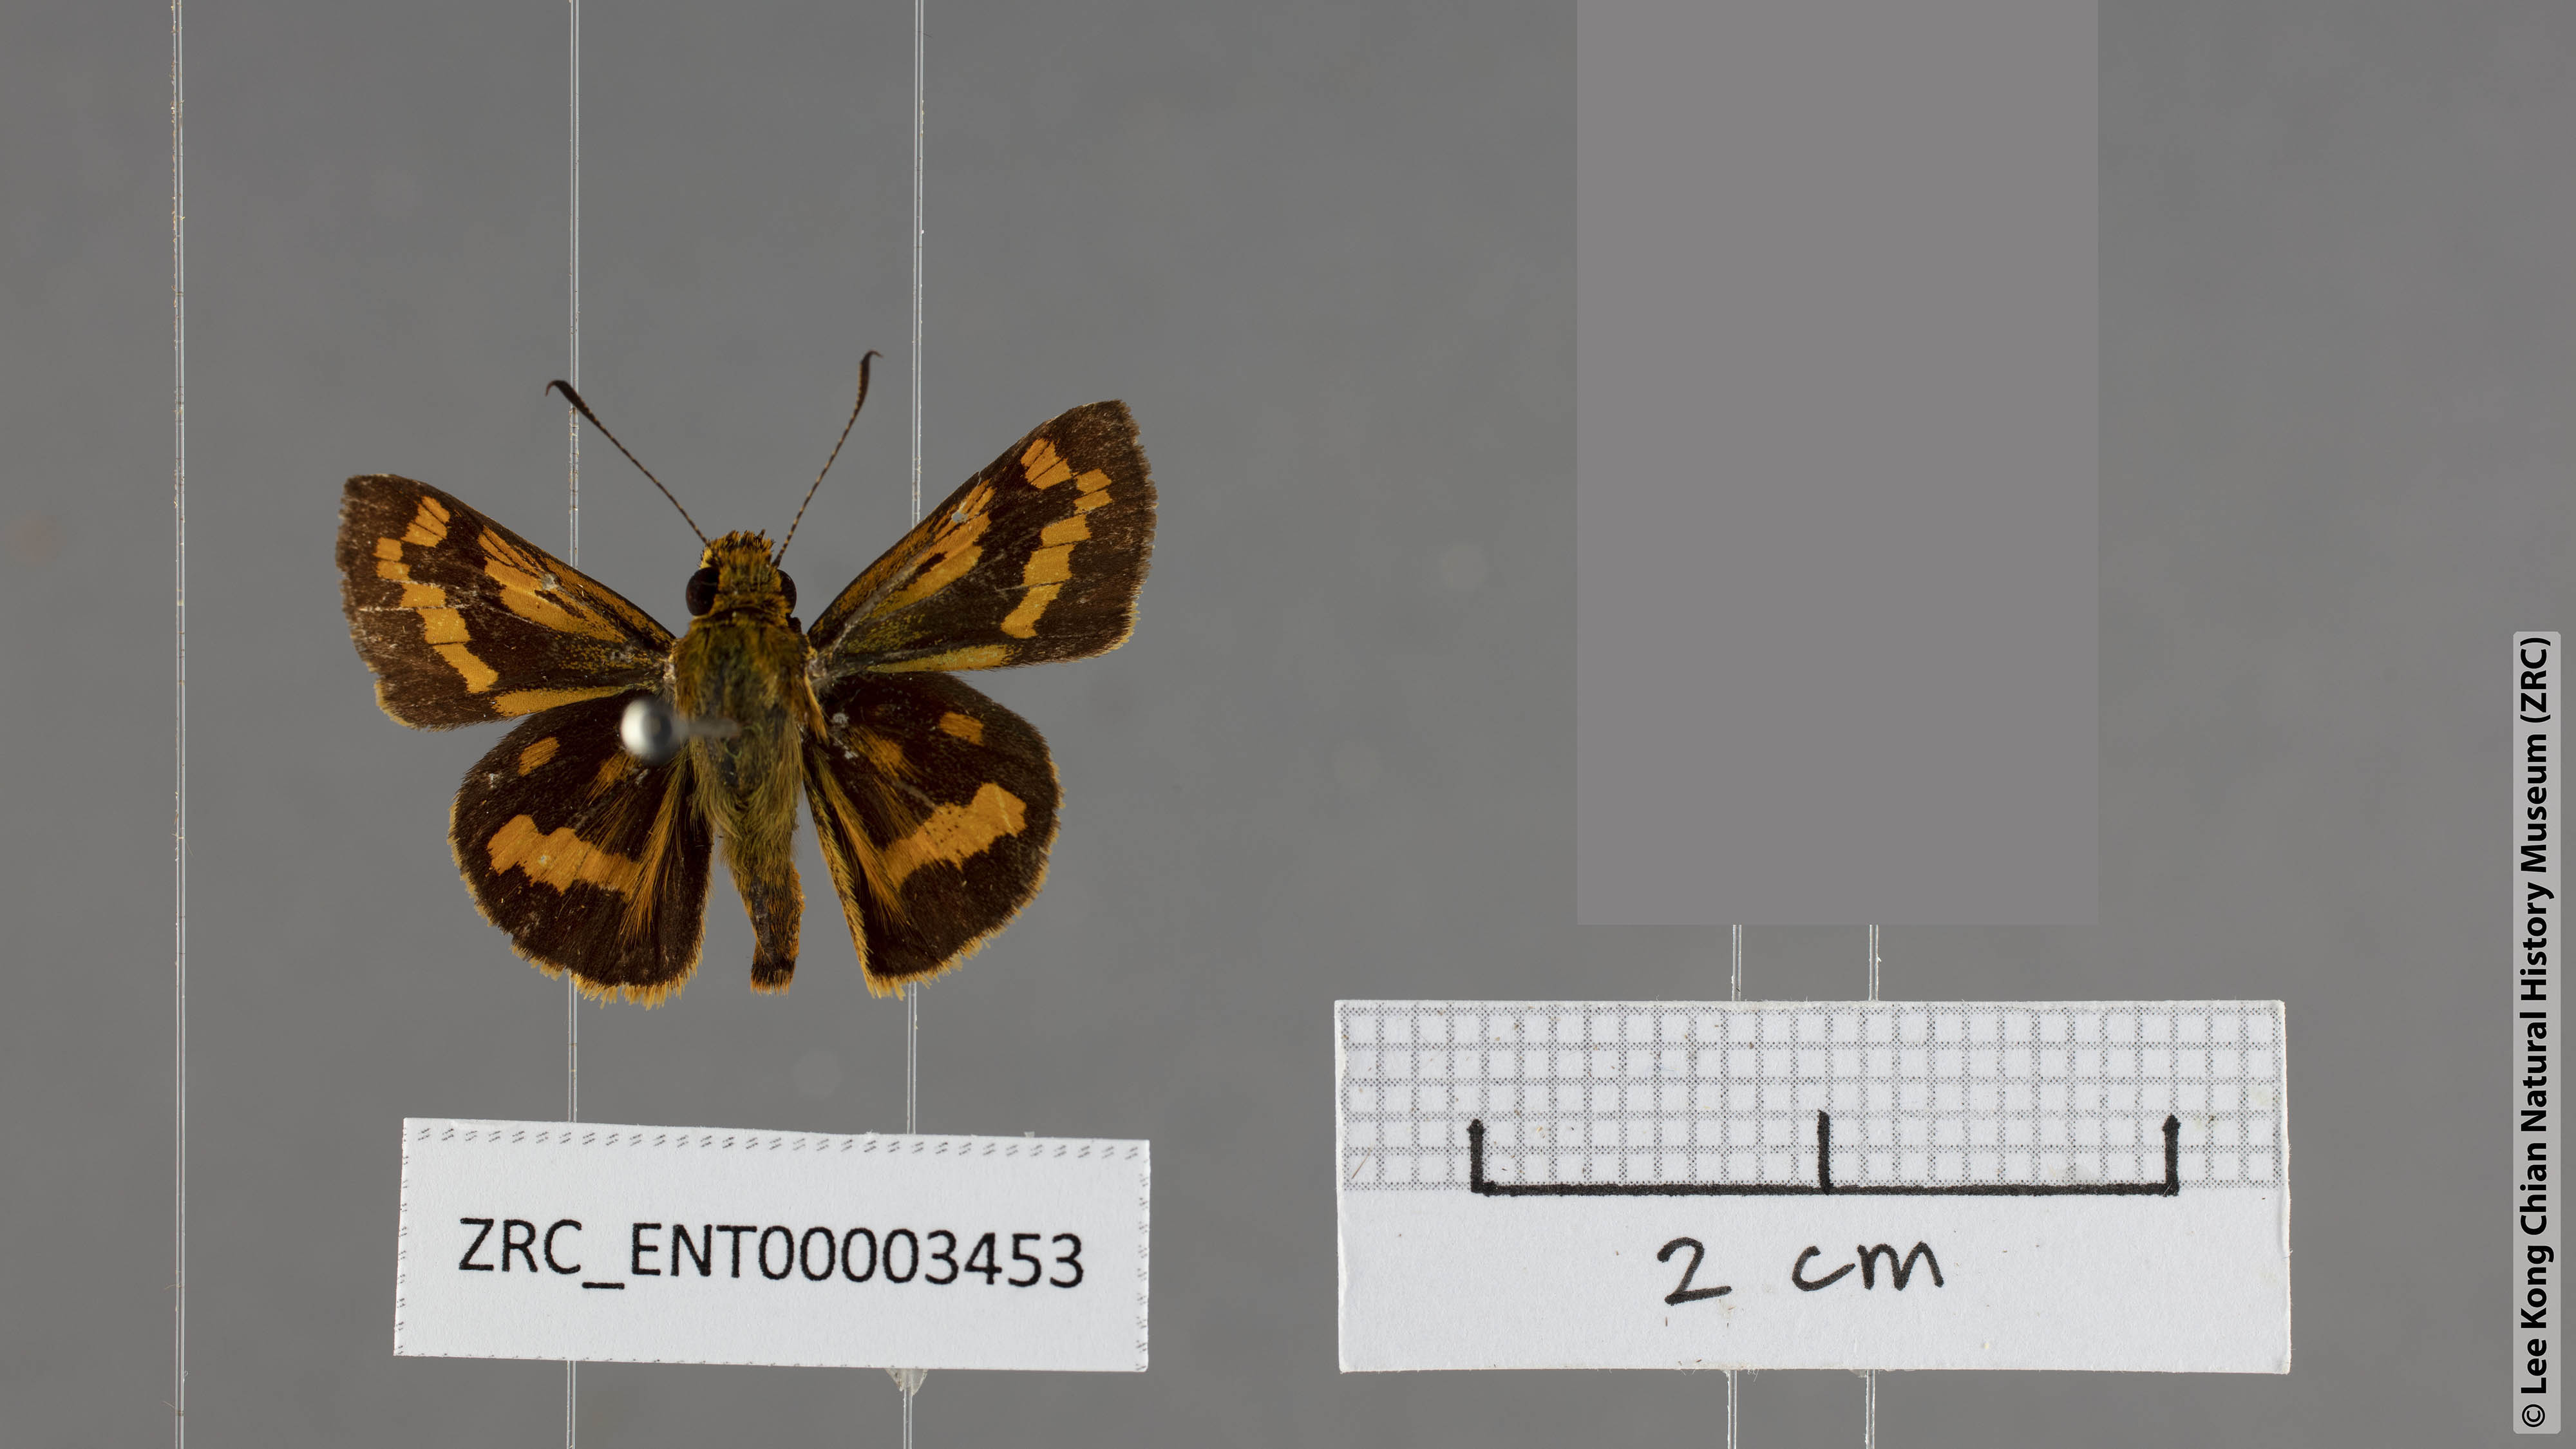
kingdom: Animalia
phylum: Arthropoda
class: Insecta
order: Lepidoptera
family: Hesperiidae
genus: Potanthus
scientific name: Potanthus chloe
